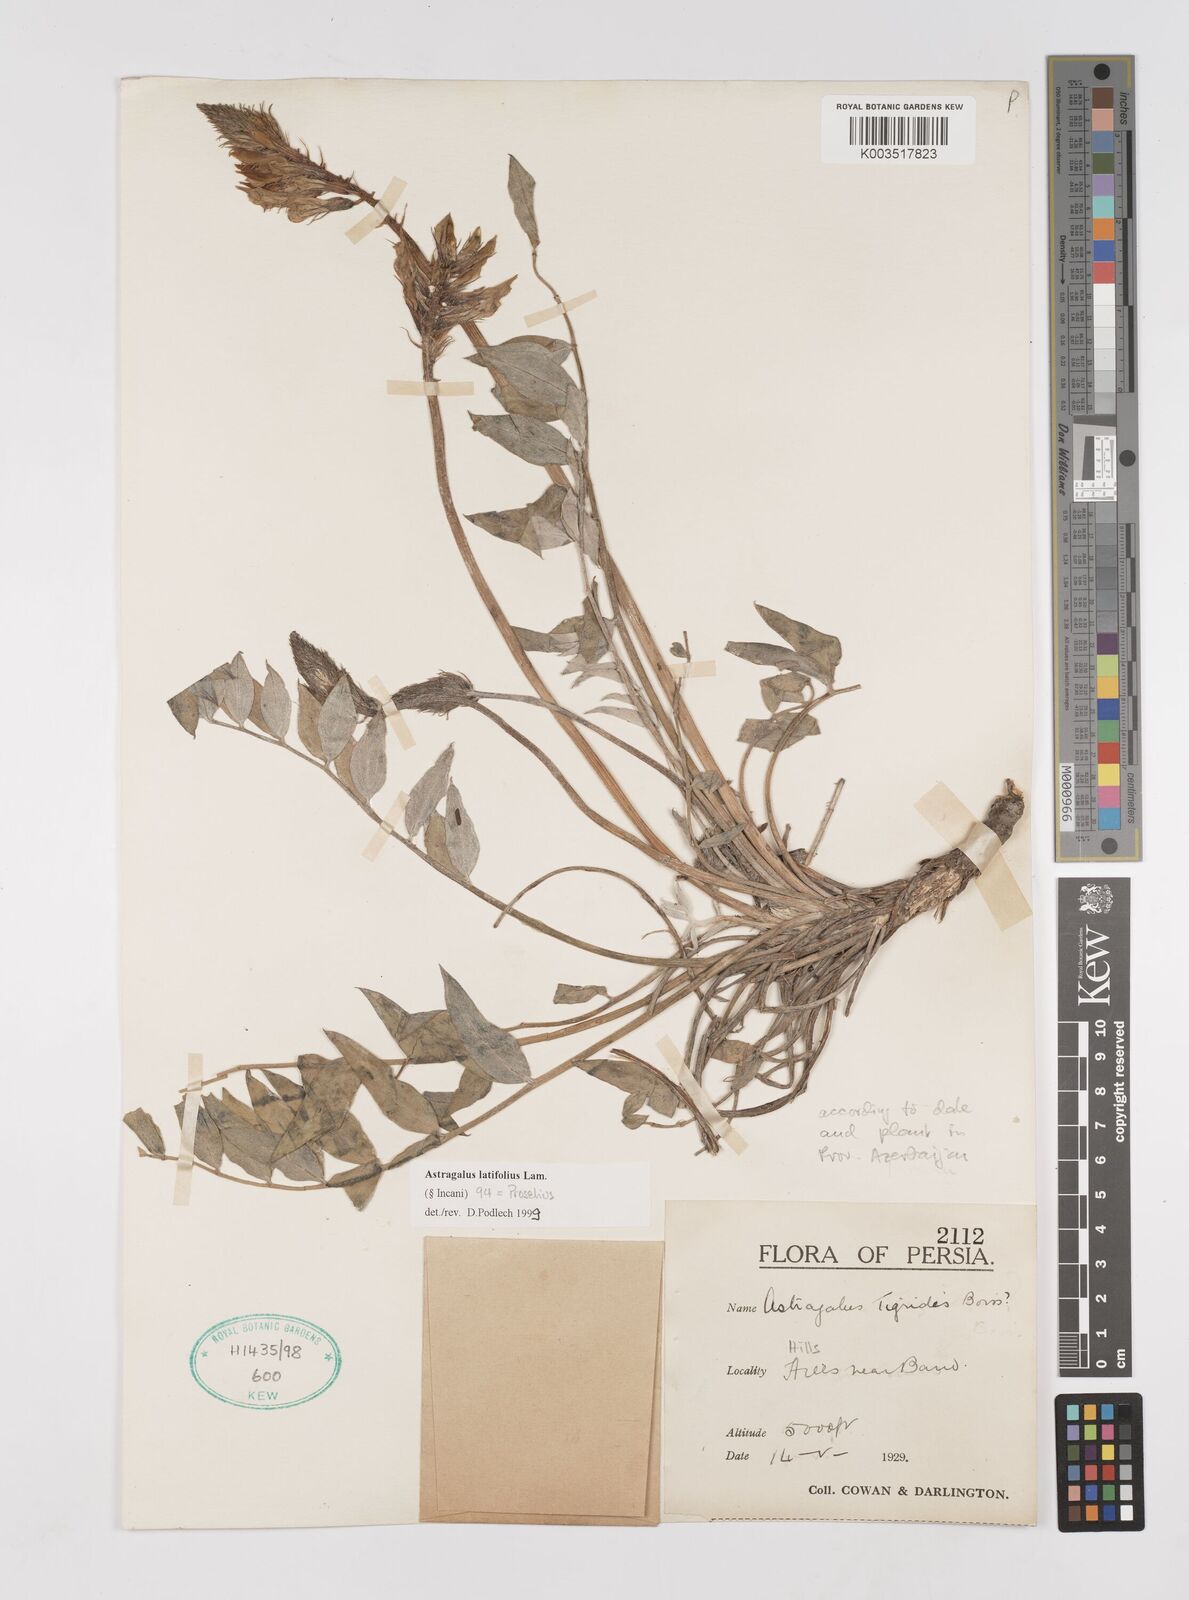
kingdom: Plantae
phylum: Tracheophyta
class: Magnoliopsida
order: Fabales
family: Fabaceae
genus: Astragalus
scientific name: Astragalus latifolius
